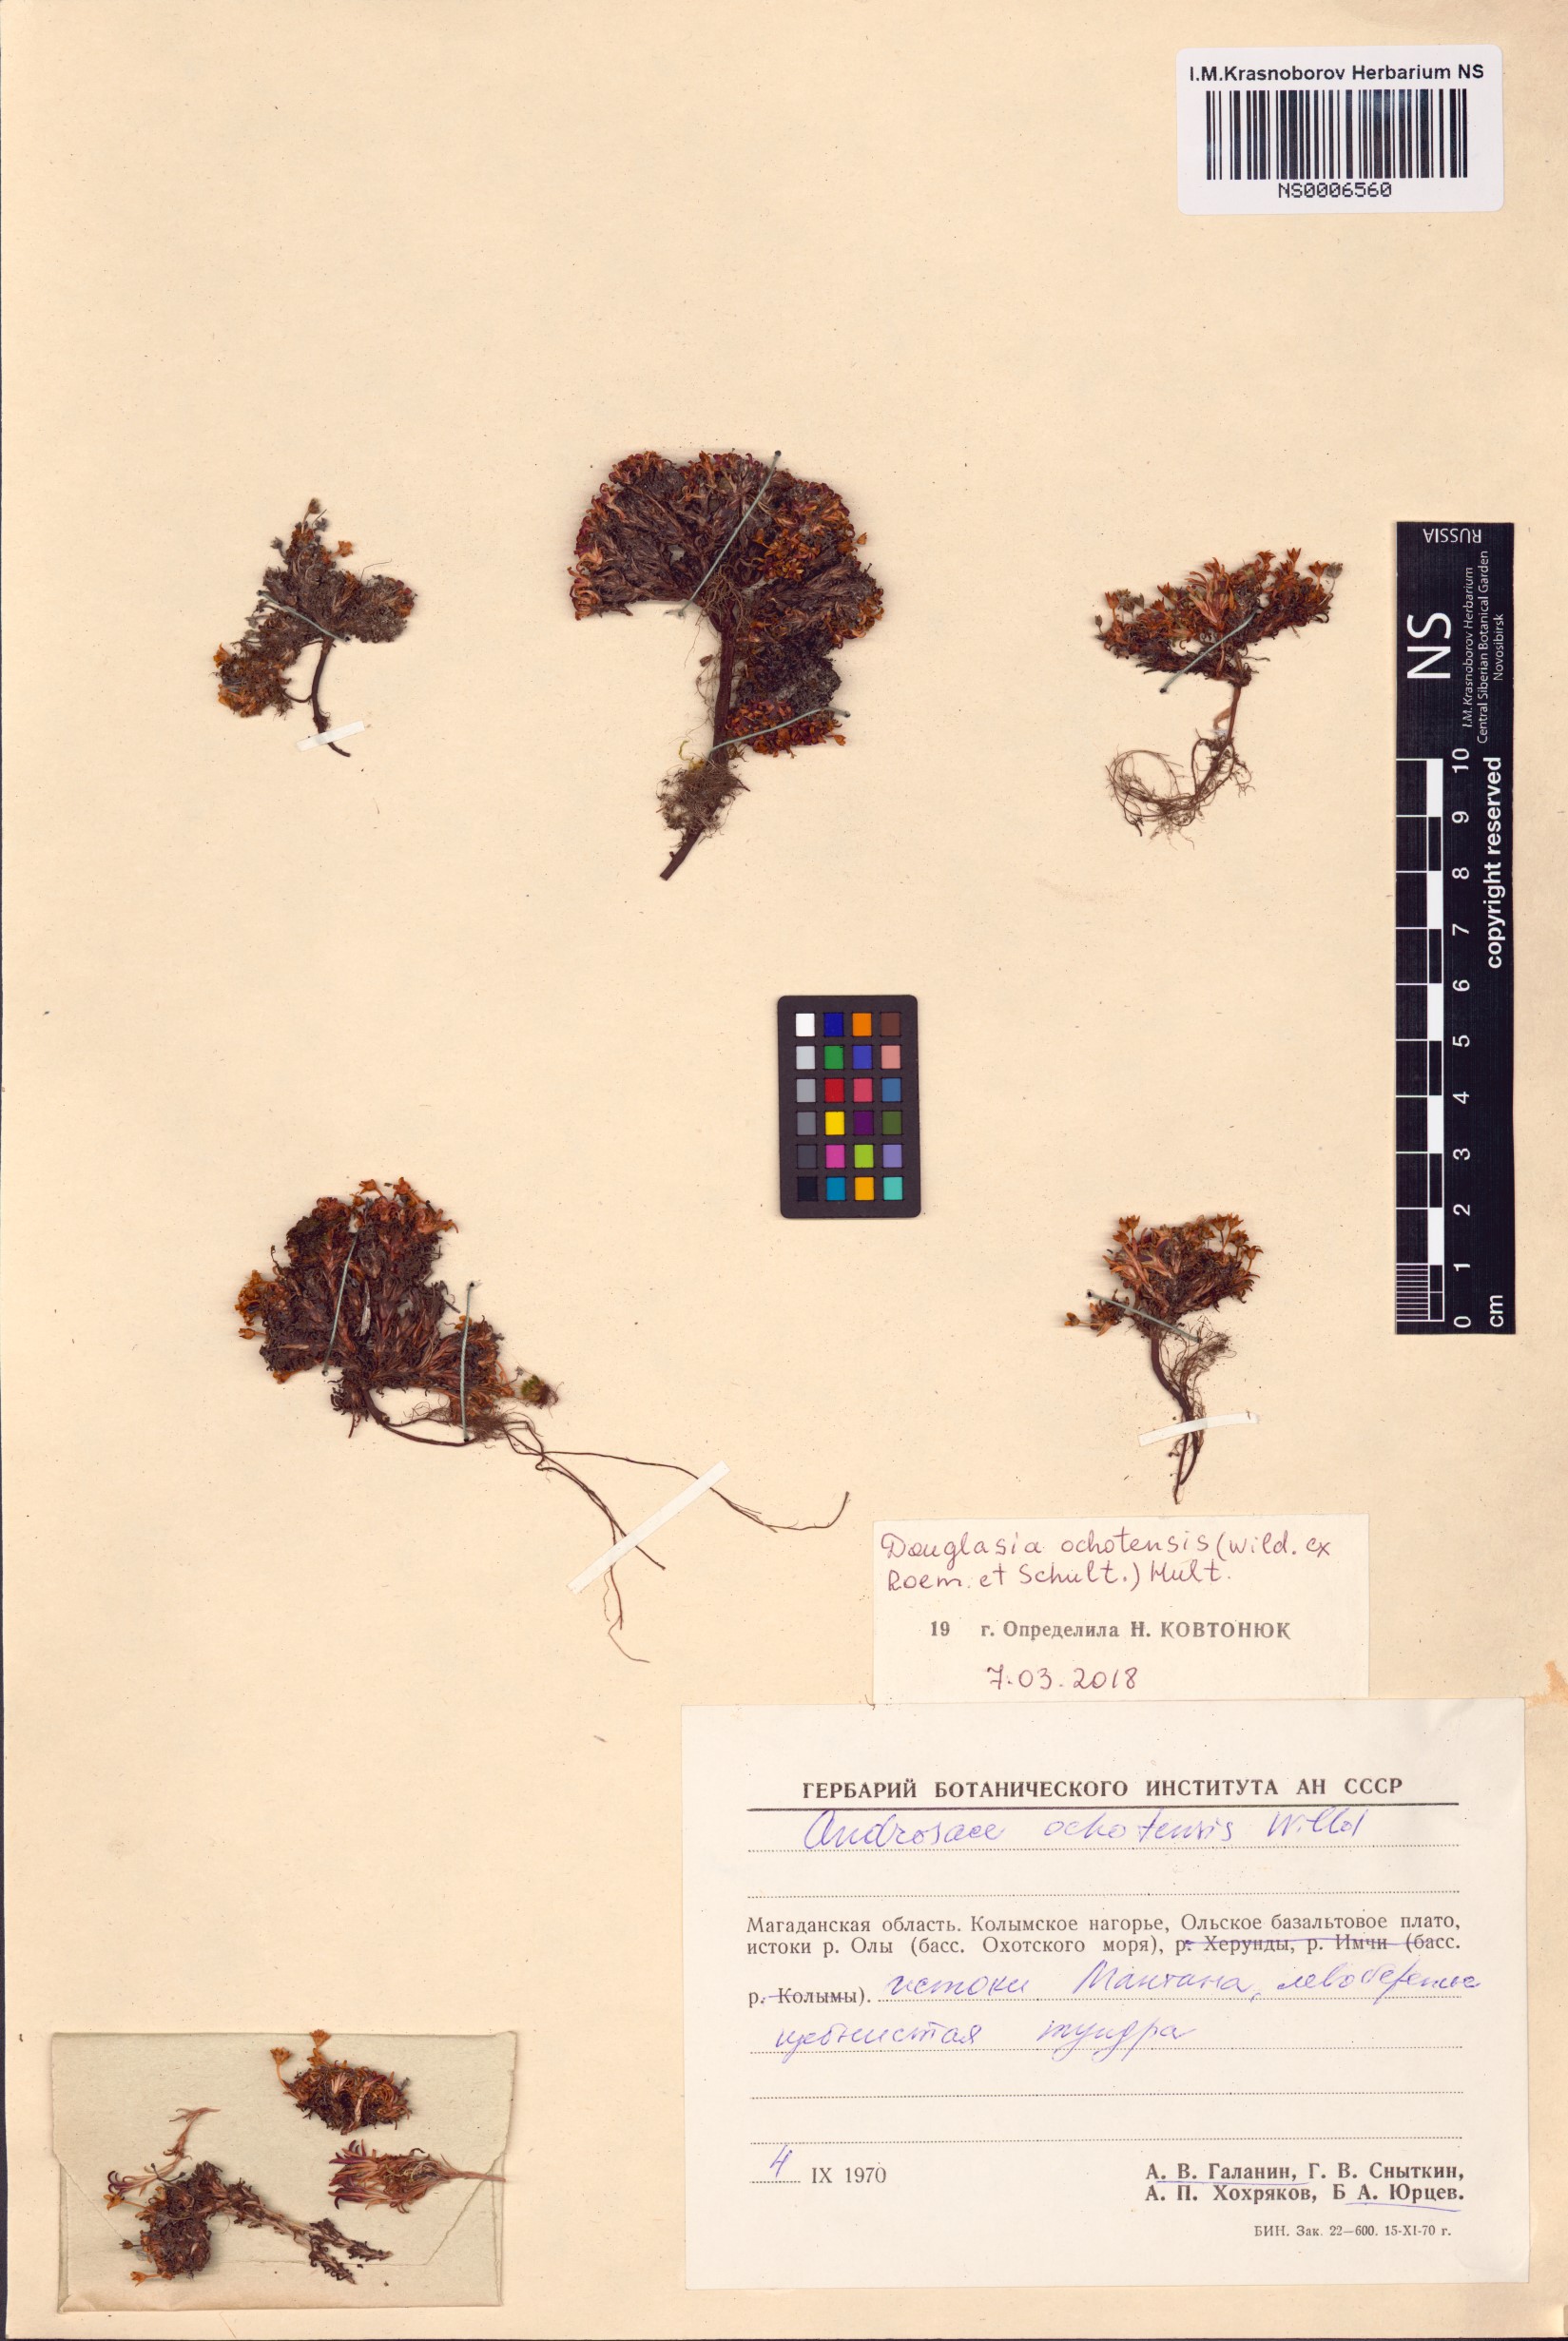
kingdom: Plantae
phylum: Tracheophyta
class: Magnoliopsida
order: Ericales
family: Primulaceae
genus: Androsace
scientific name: Androsace ochotensis
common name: Alaska dwarf-primrose
